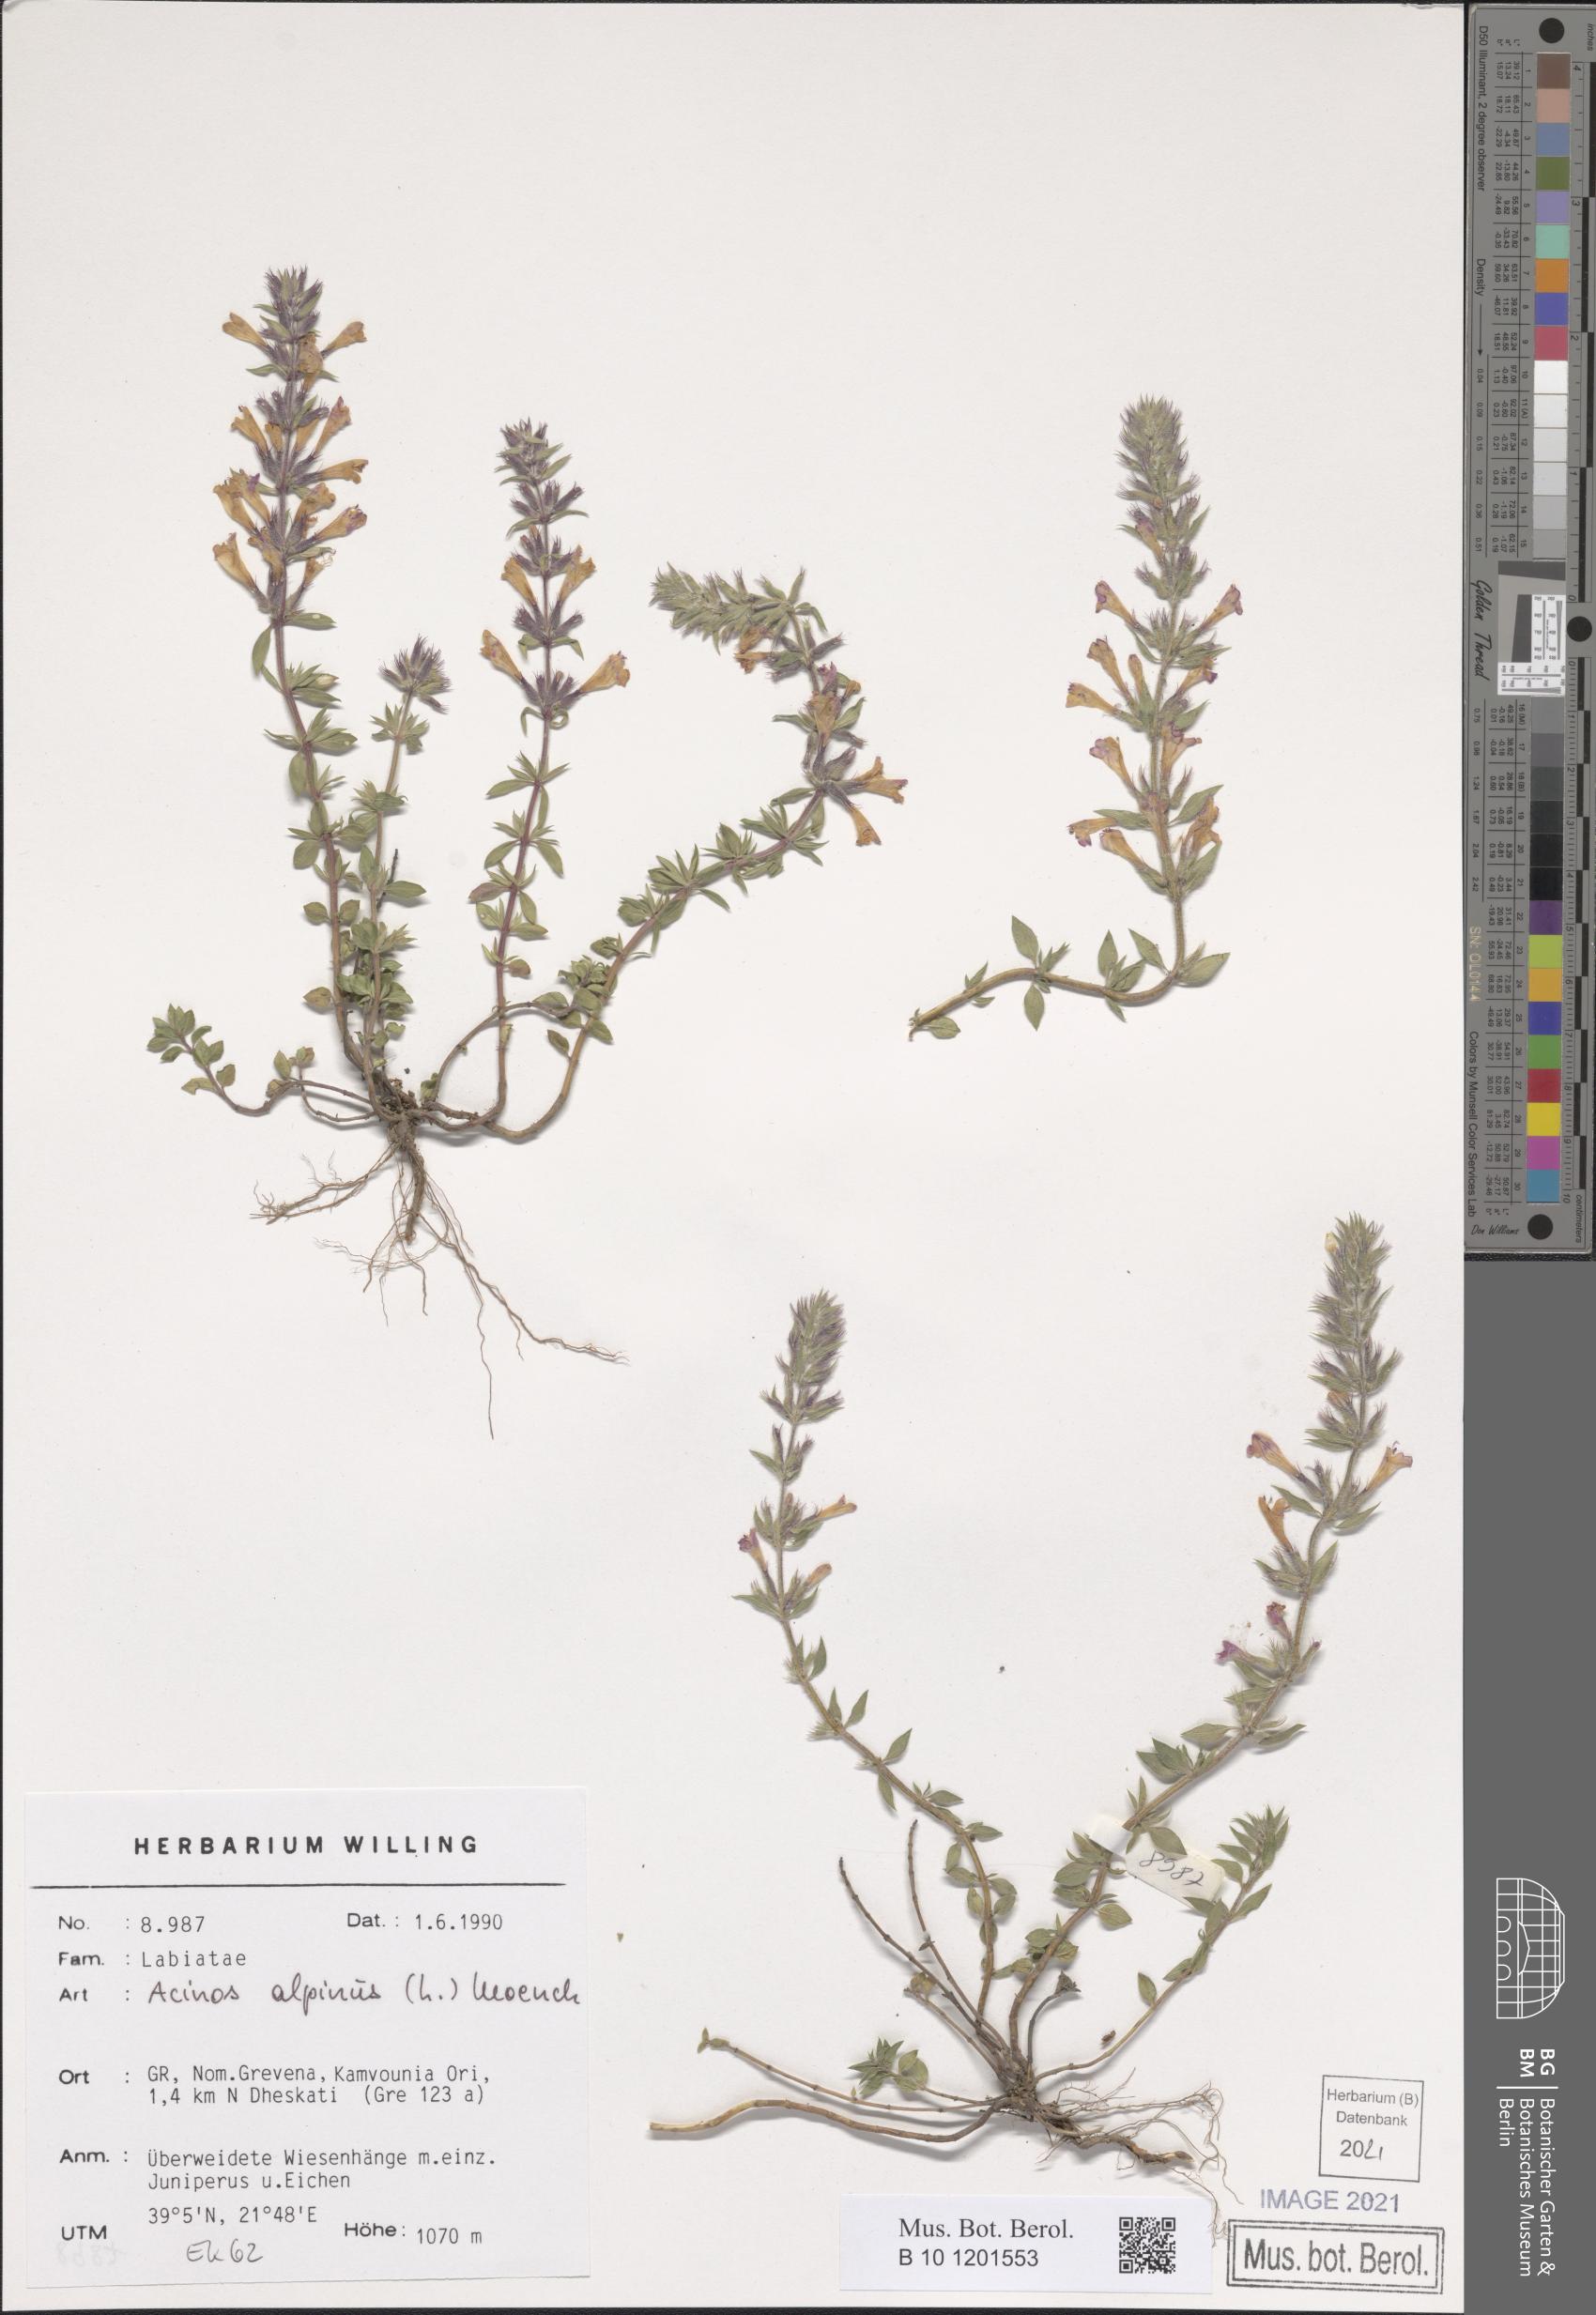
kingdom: Plantae
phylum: Tracheophyta
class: Magnoliopsida
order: Lamiales
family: Lamiaceae
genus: Clinopodium
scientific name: Clinopodium alpinum
